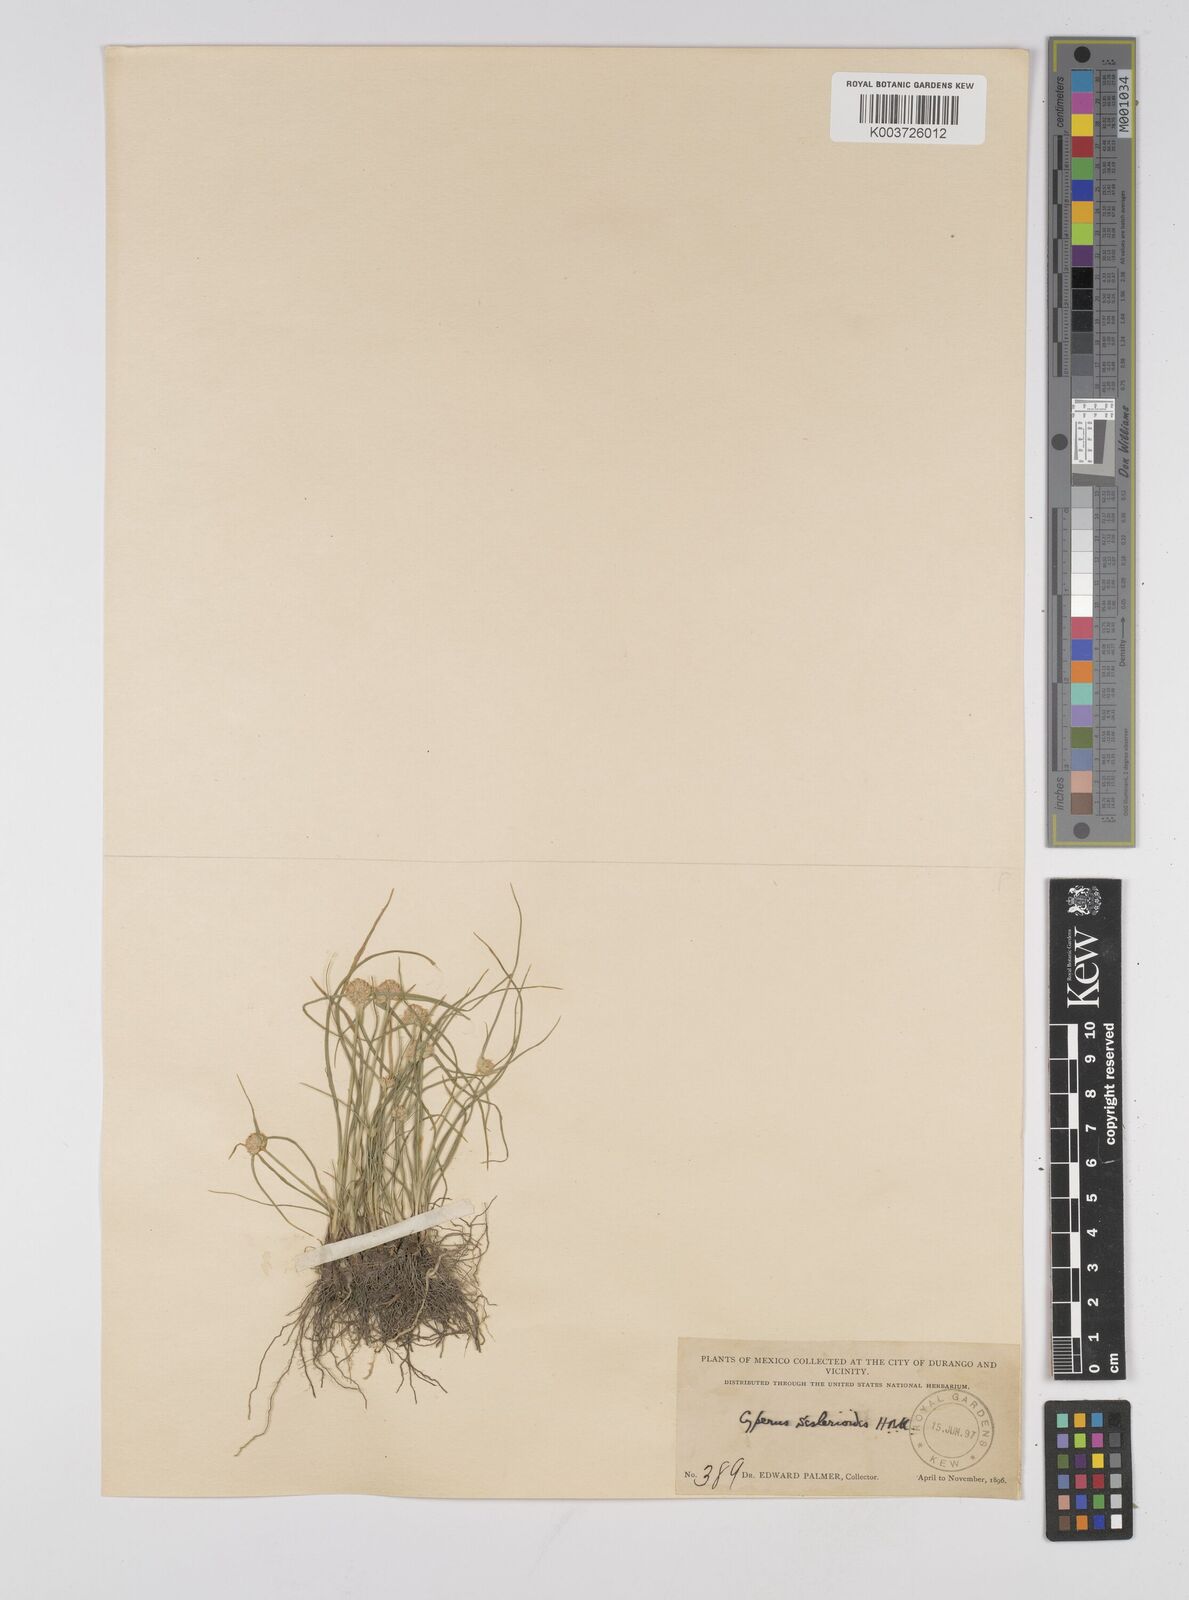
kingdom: Plantae
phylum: Tracheophyta
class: Liliopsida
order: Poales
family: Cyperaceae
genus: Cyperus
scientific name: Cyperus seslerioides
